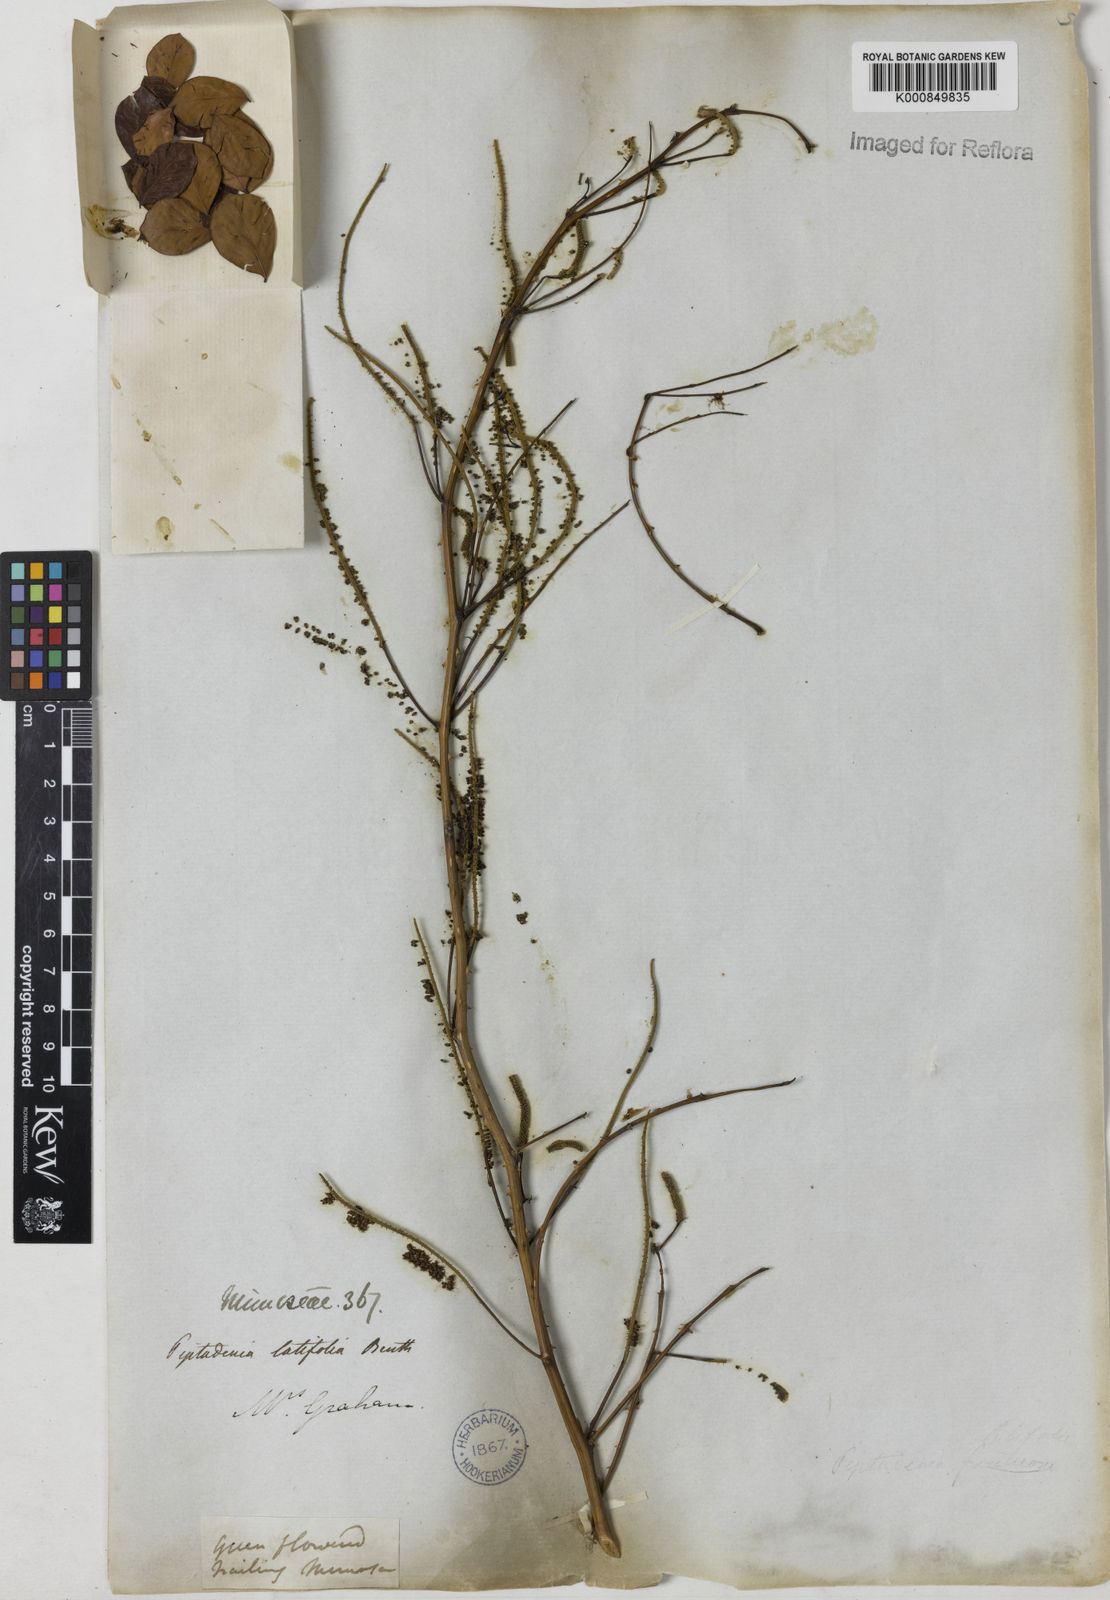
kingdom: Plantae
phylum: Tracheophyta
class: Magnoliopsida
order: Fabales
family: Fabaceae
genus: Piptadenia
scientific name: Piptadenia adiantoides
